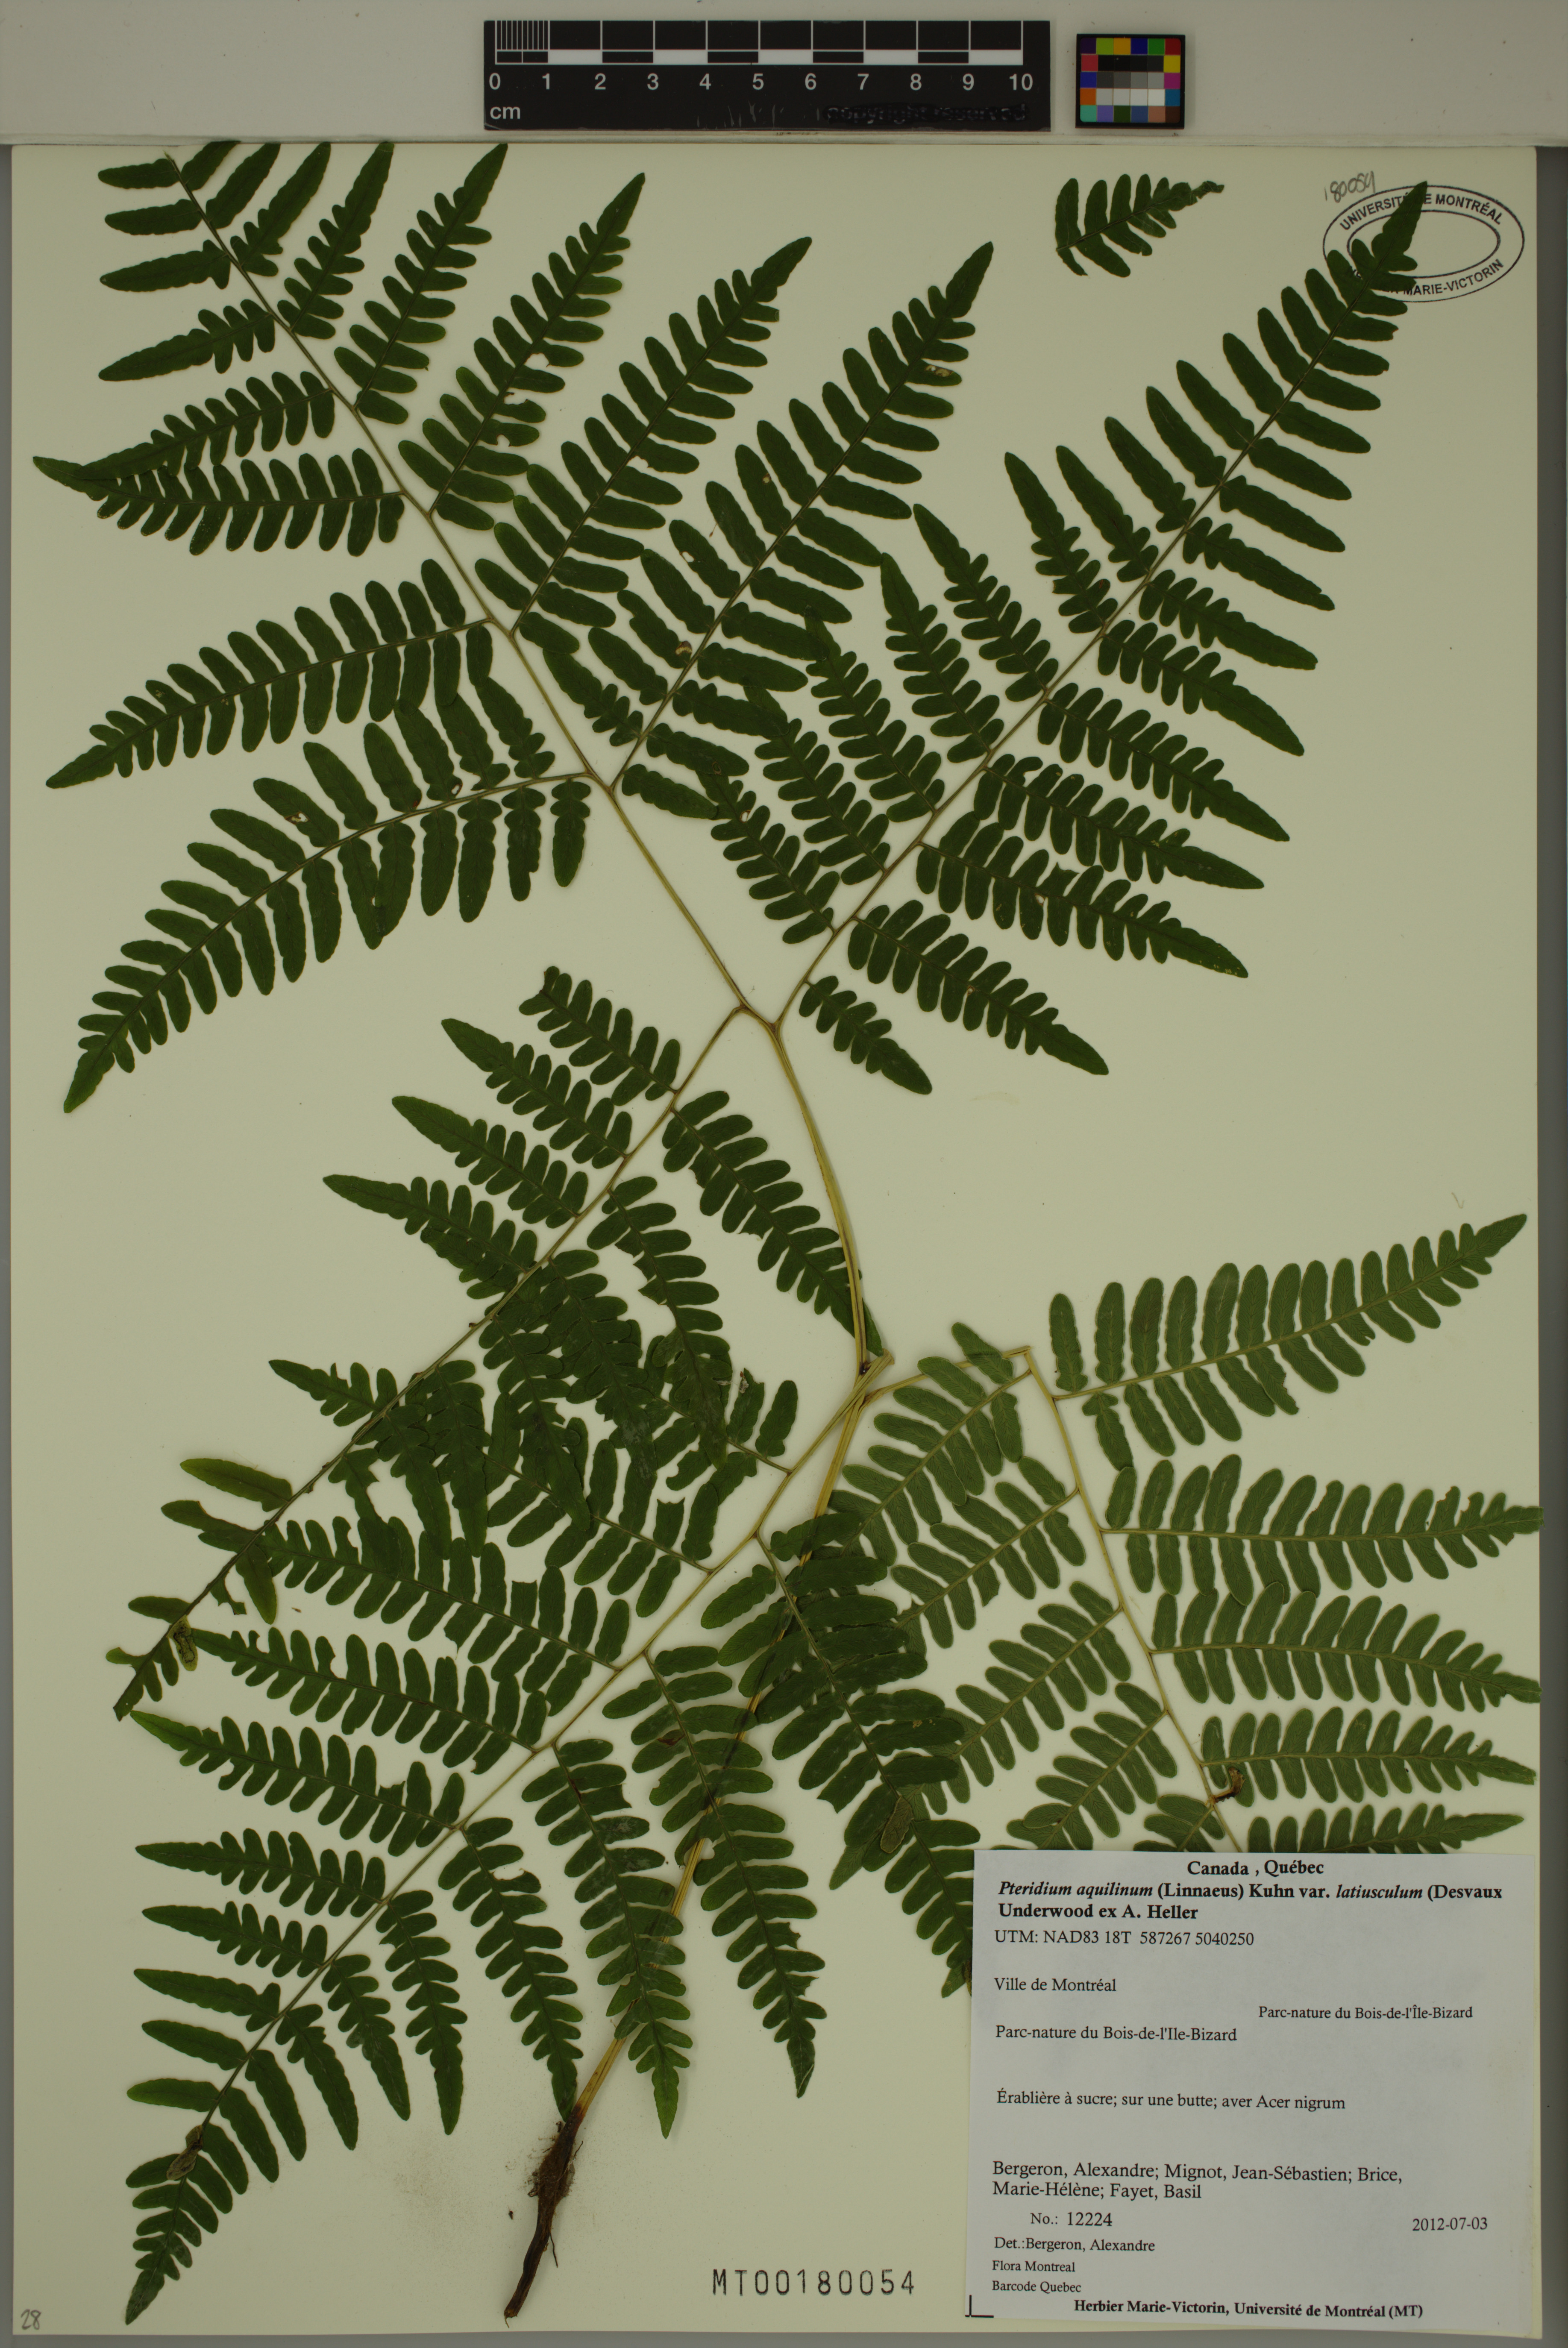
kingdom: Plantae
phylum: Tracheophyta
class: Polypodiopsida
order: Polypodiales
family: Dennstaedtiaceae
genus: Pteridium
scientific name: Pteridium aquilinum
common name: Bracken
